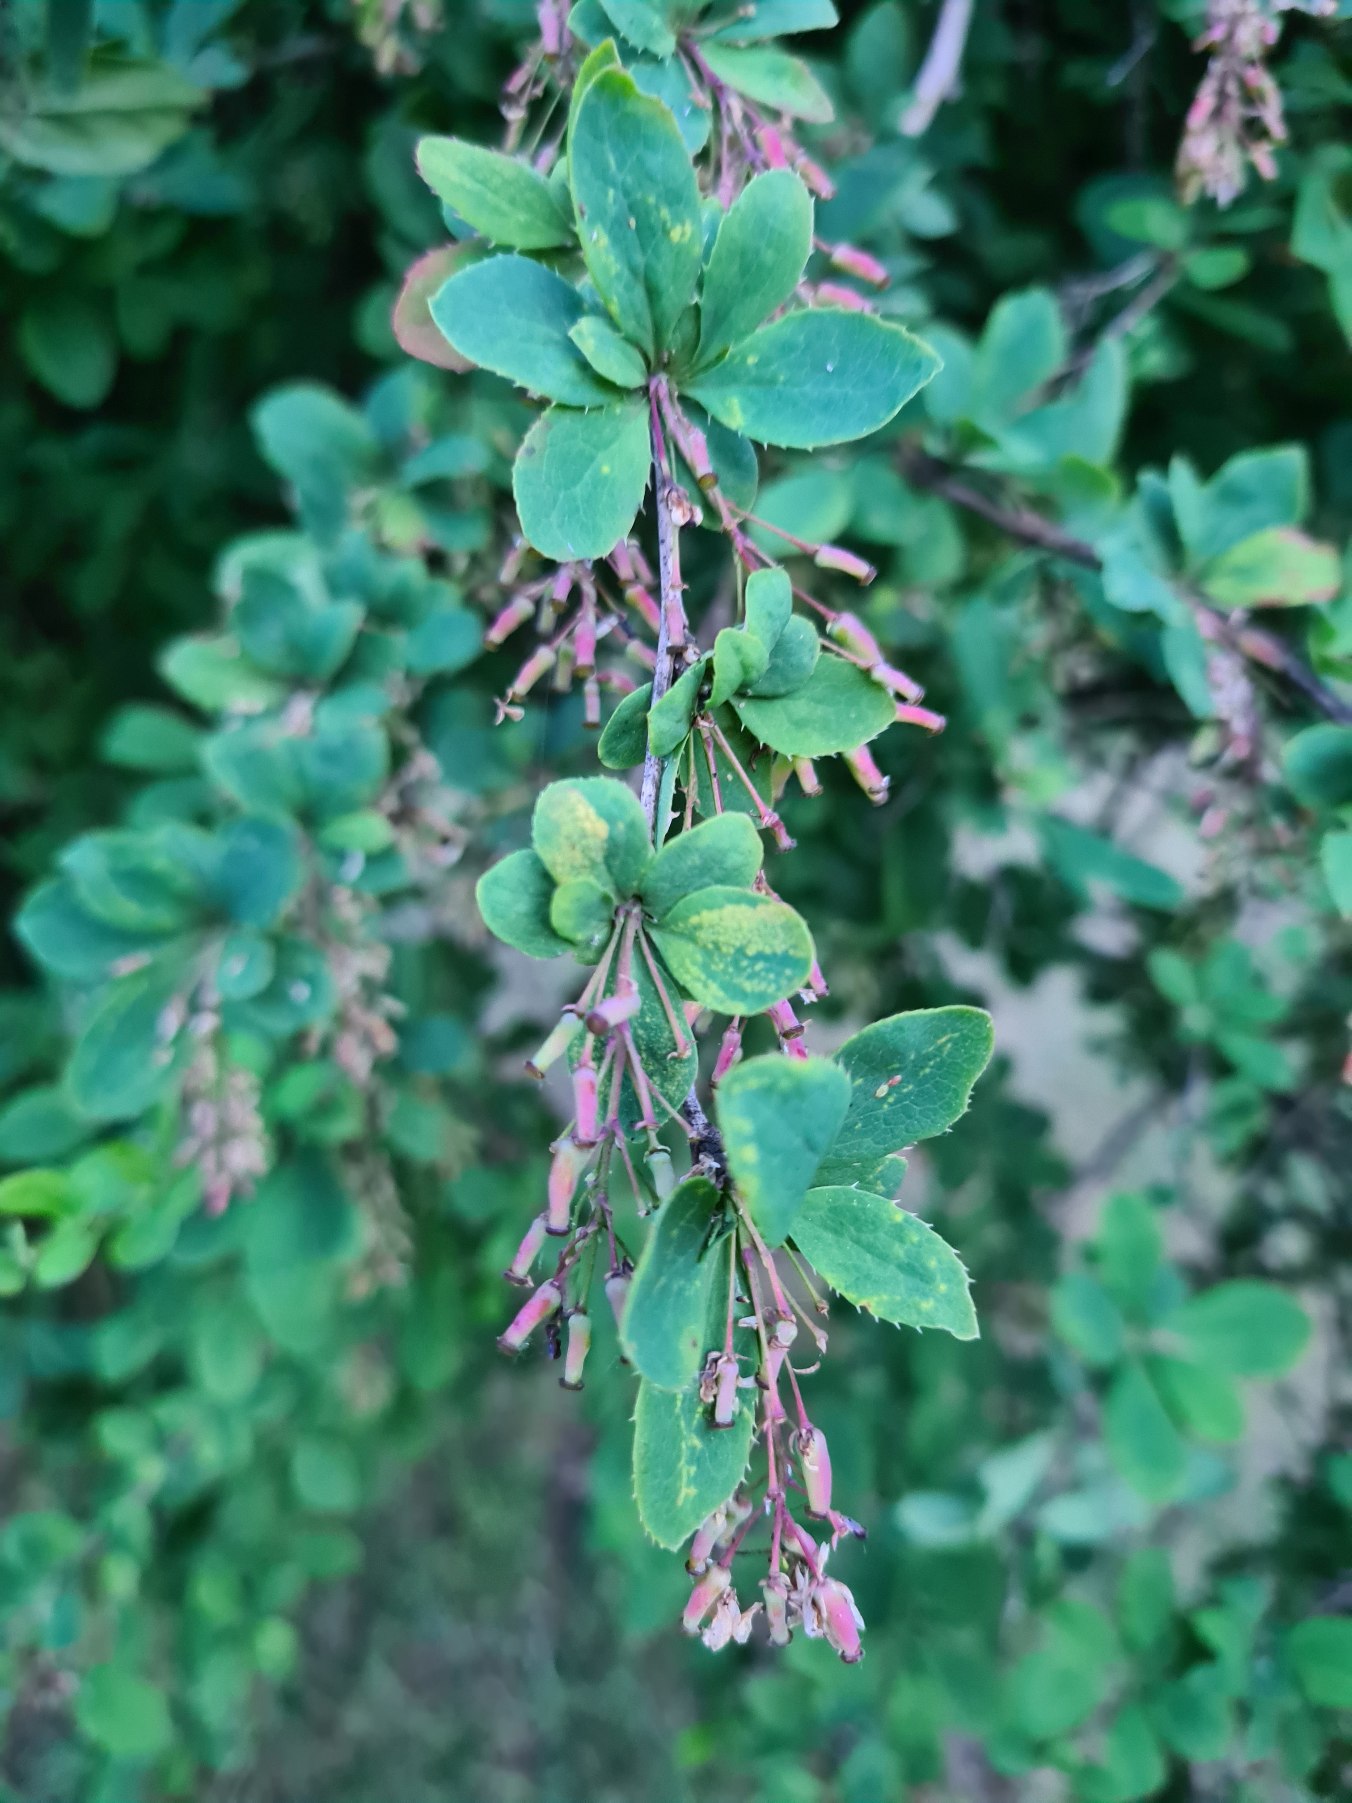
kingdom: Plantae
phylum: Tracheophyta
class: Magnoliopsida
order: Ranunculales
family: Berberidaceae
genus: Berberis
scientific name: Berberis vulgaris
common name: Almindelig berberis
